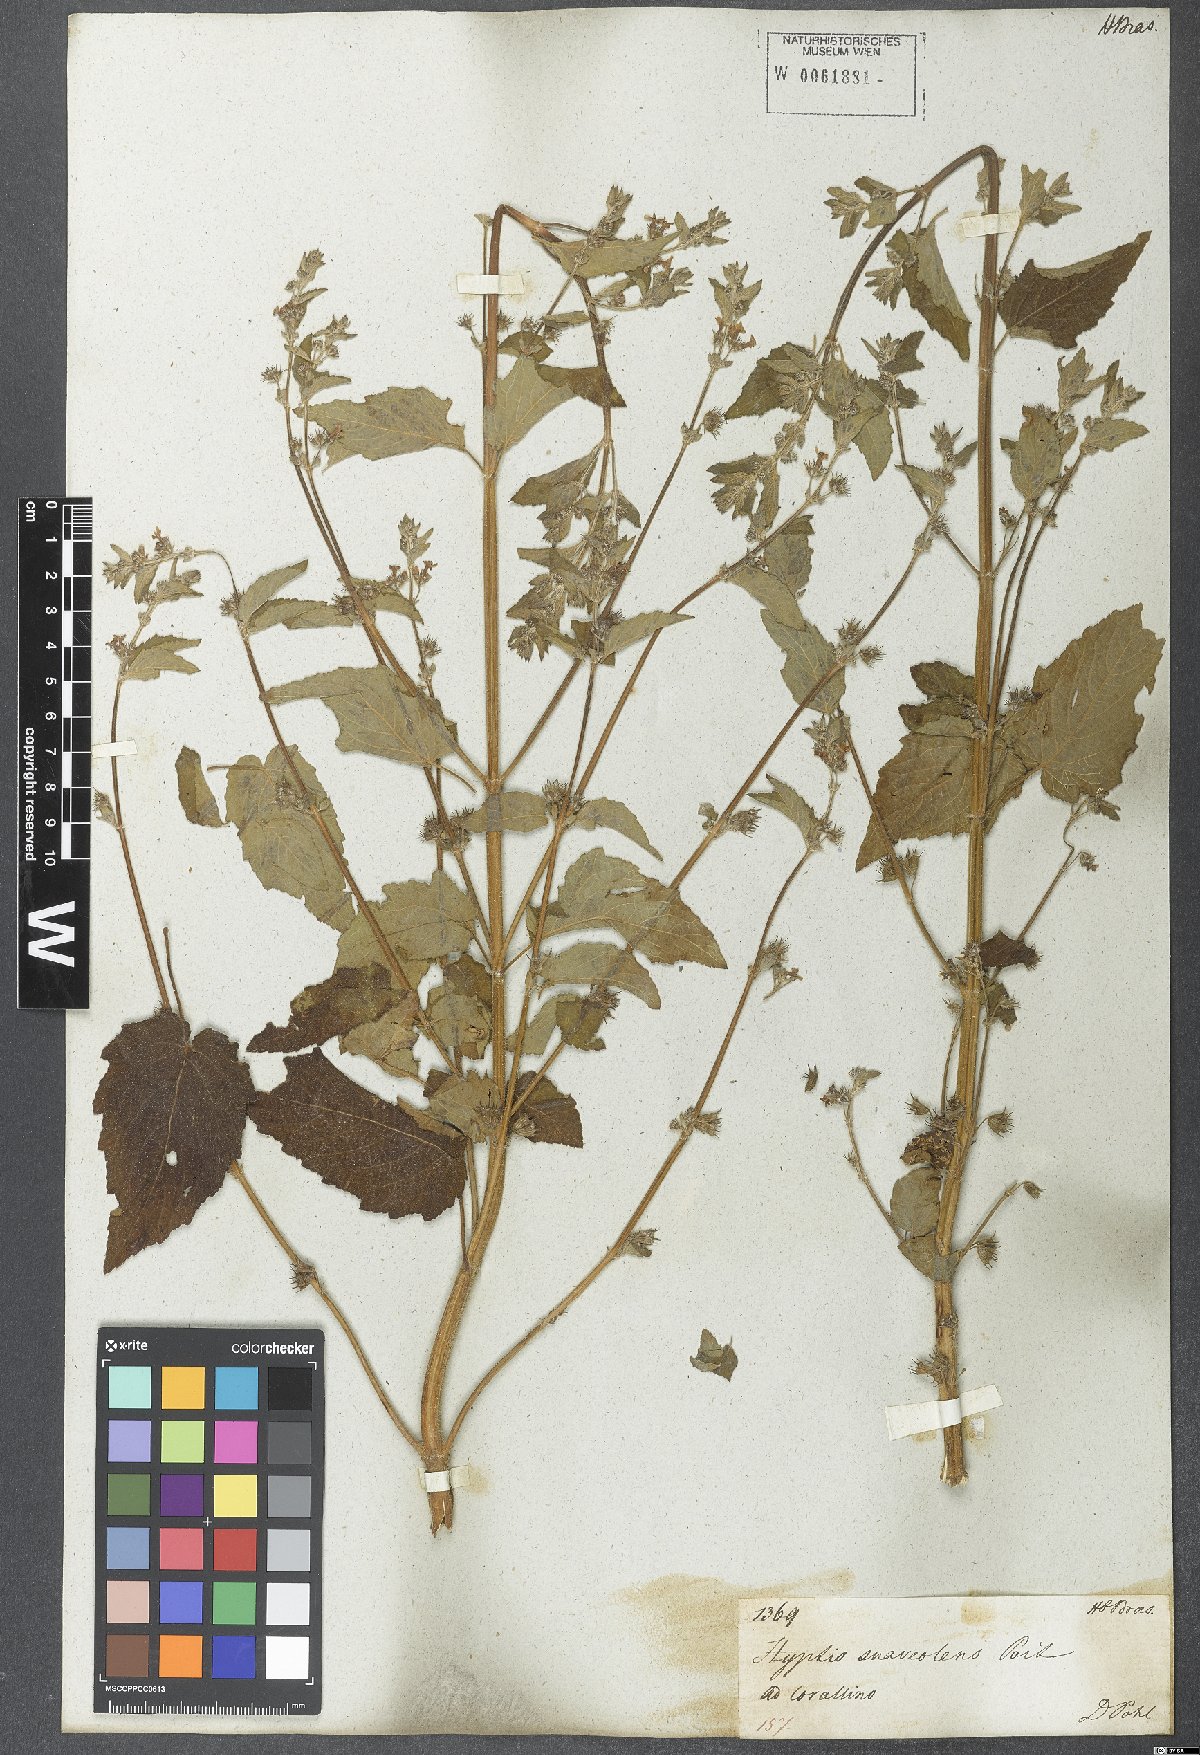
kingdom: Plantae
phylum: Tracheophyta
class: Magnoliopsida
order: Lamiales
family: Lamiaceae
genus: Mesosphaerum
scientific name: Mesosphaerum suaveolens
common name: Pignut
